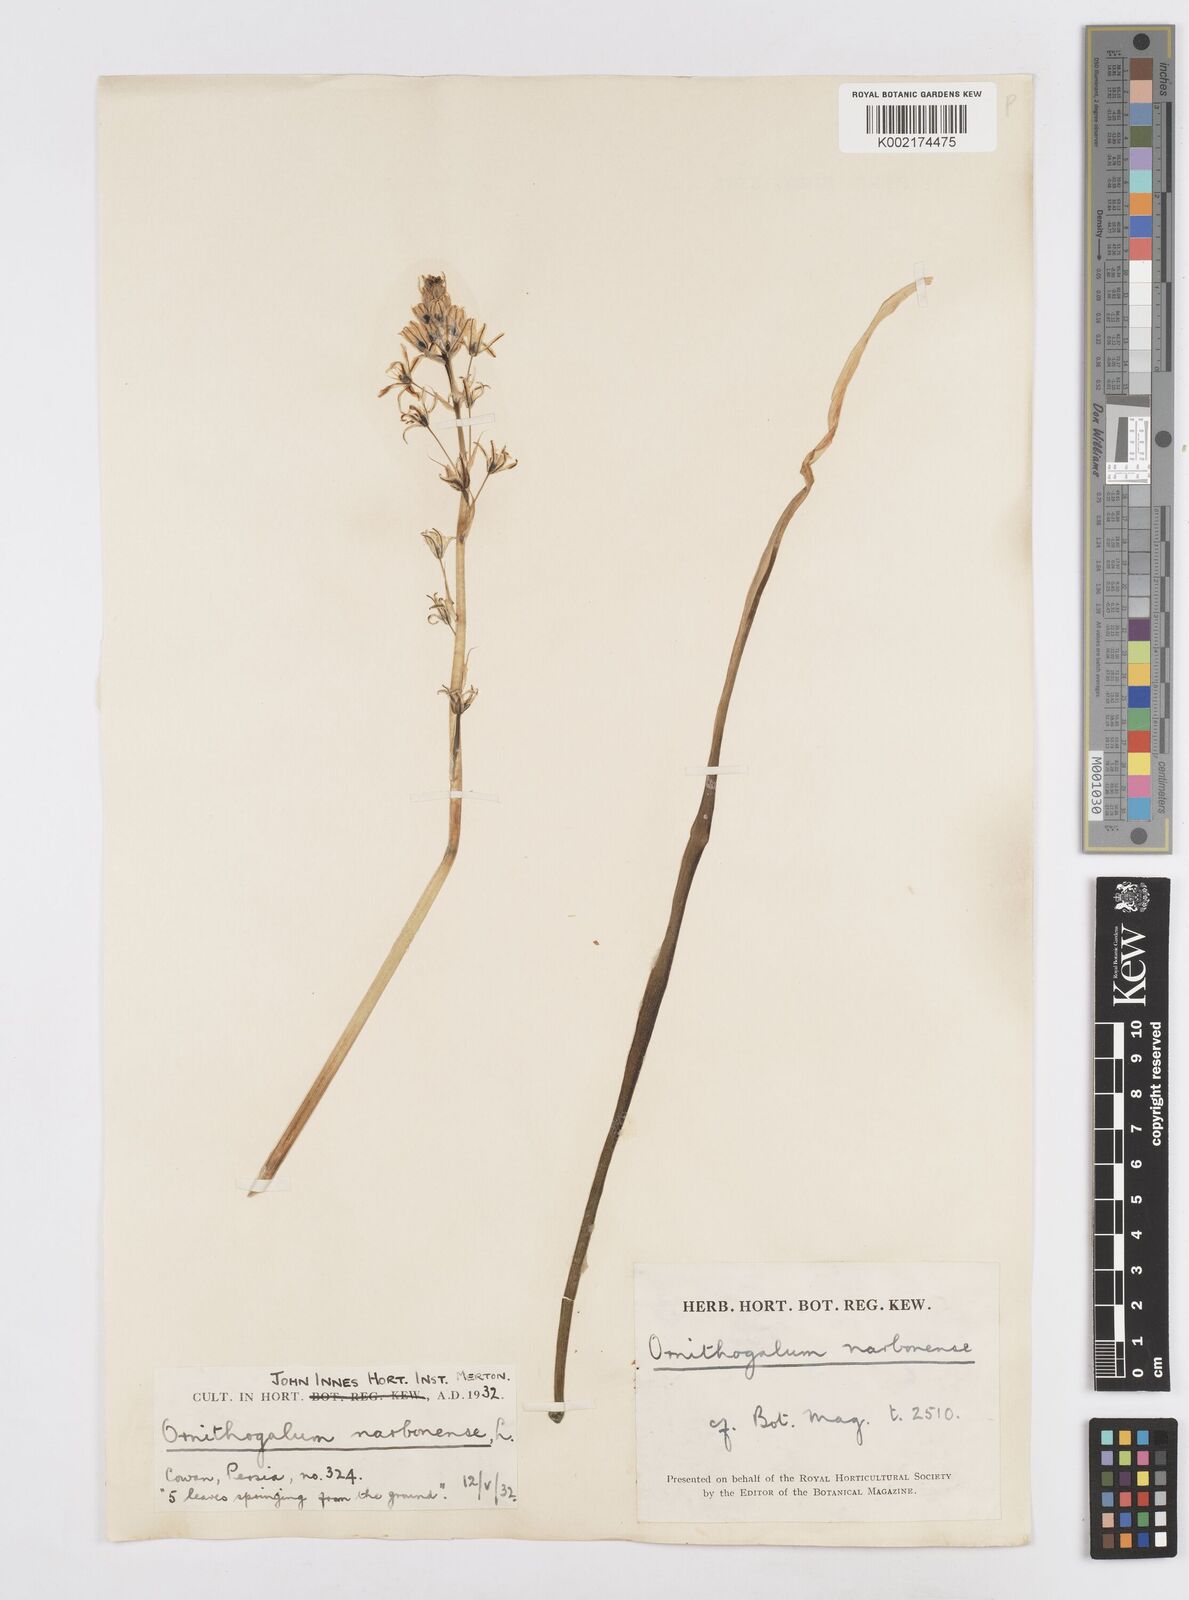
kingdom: Plantae
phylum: Tracheophyta
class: Liliopsida
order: Asparagales
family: Asparagaceae
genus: Ornithogalum
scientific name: Ornithogalum narbonense
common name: Bath-asparagus
